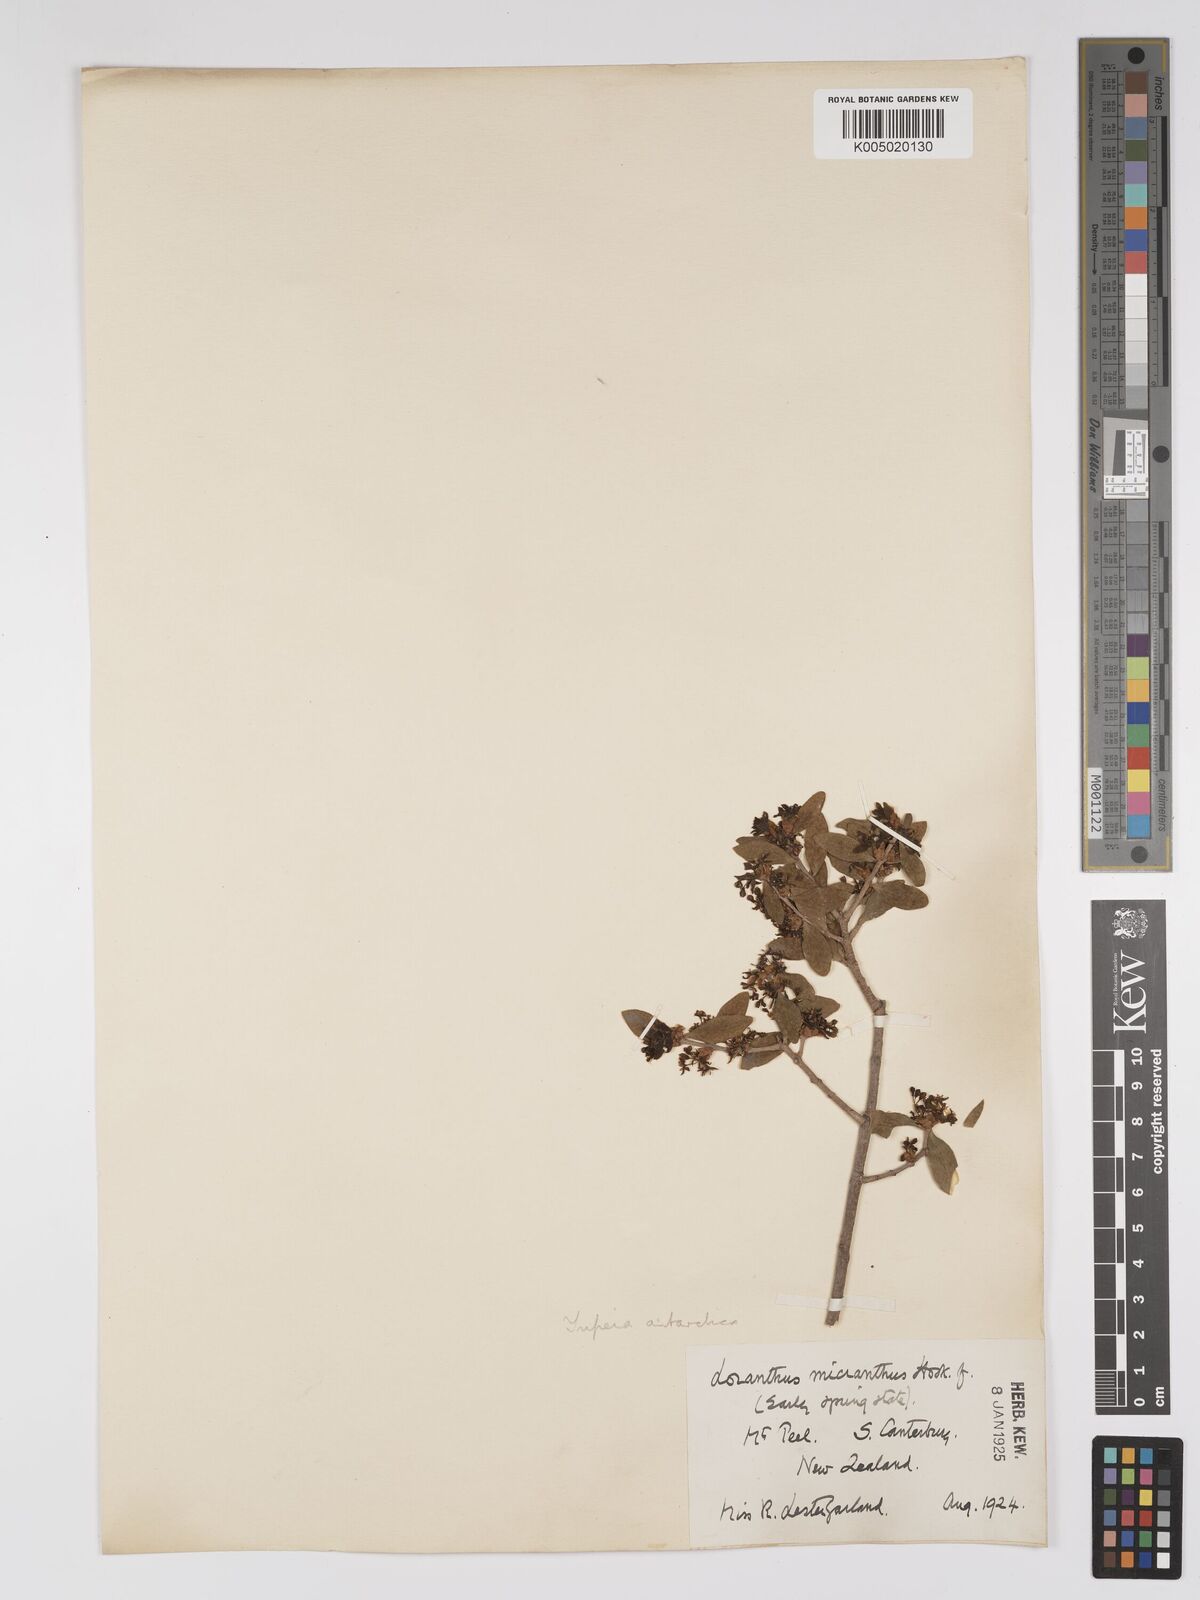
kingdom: Plantae
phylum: Tracheophyta
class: Magnoliopsida
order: Santalales
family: Loranthaceae
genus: Tupeia
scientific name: Tupeia antarctica
